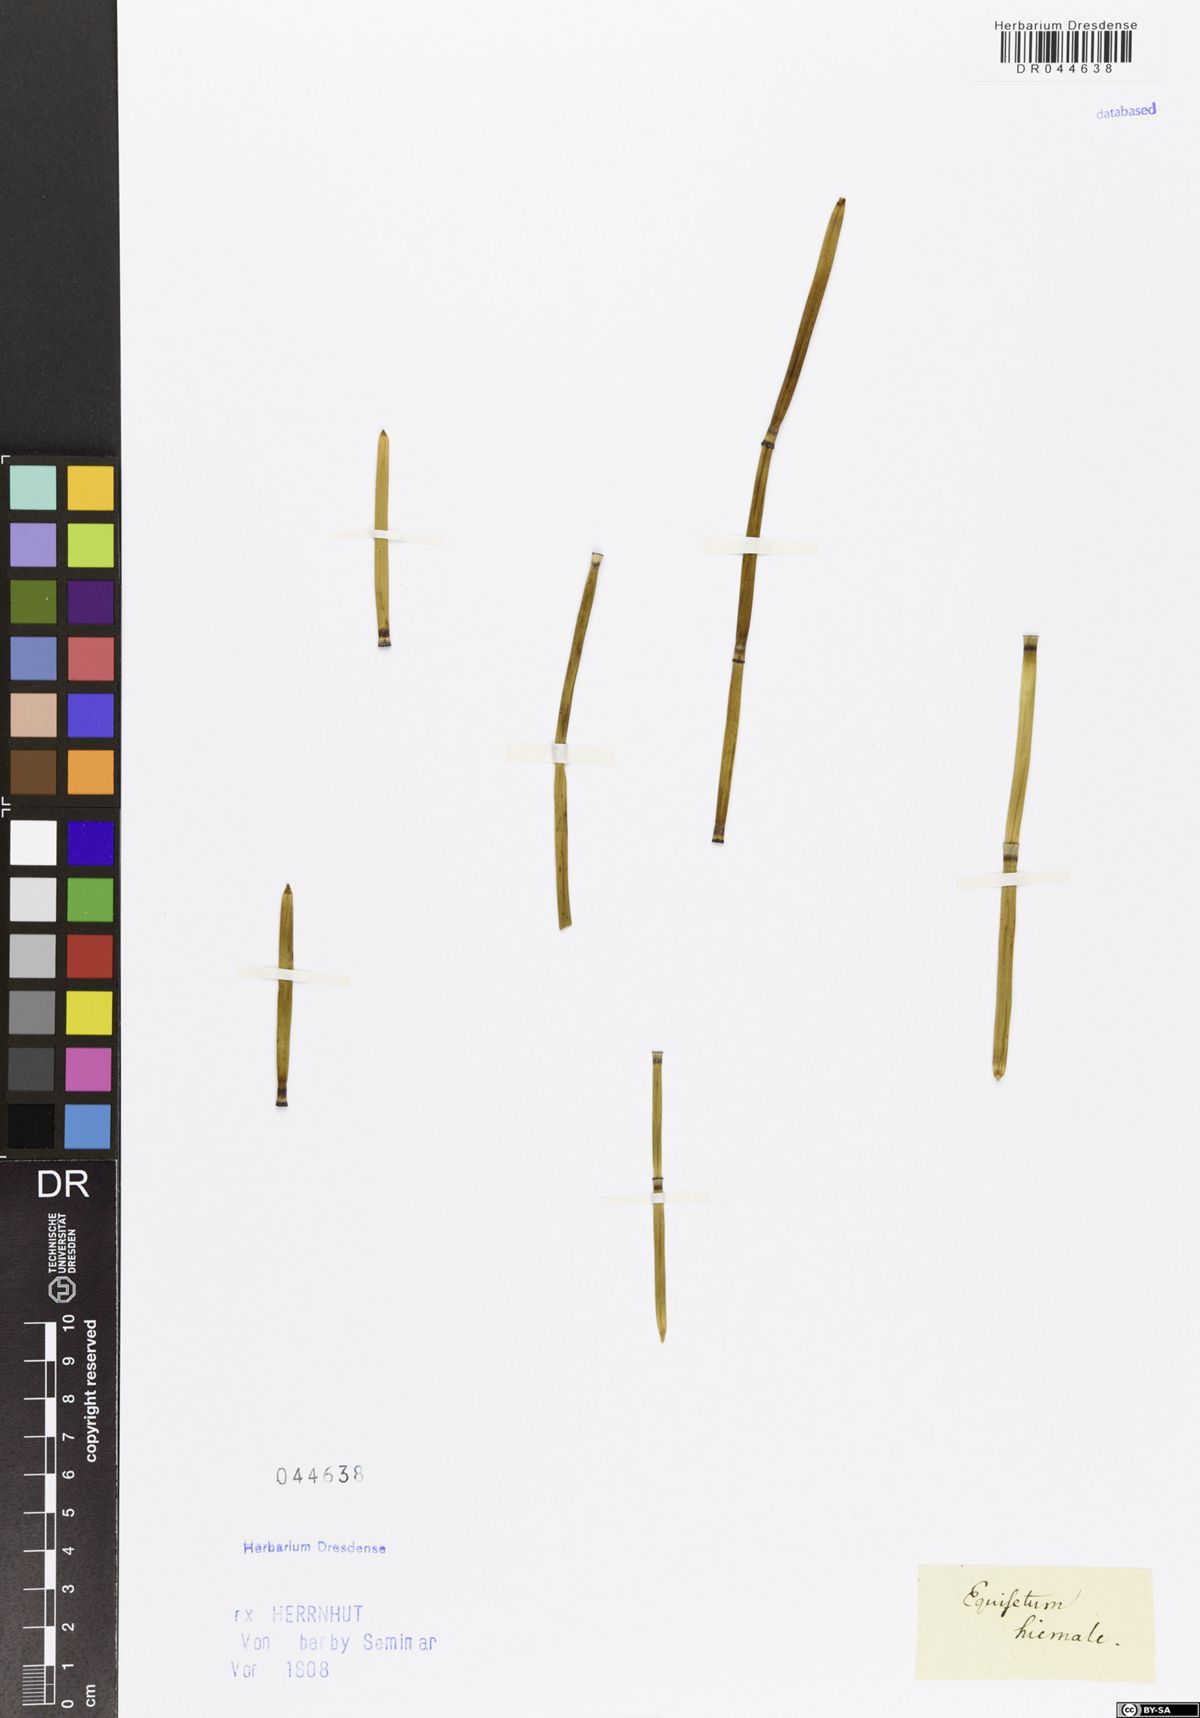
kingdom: Plantae
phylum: Tracheophyta
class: Polypodiopsida
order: Equisetales
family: Equisetaceae
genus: Equisetum
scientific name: Equisetum hyemale
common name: Rough horsetail
